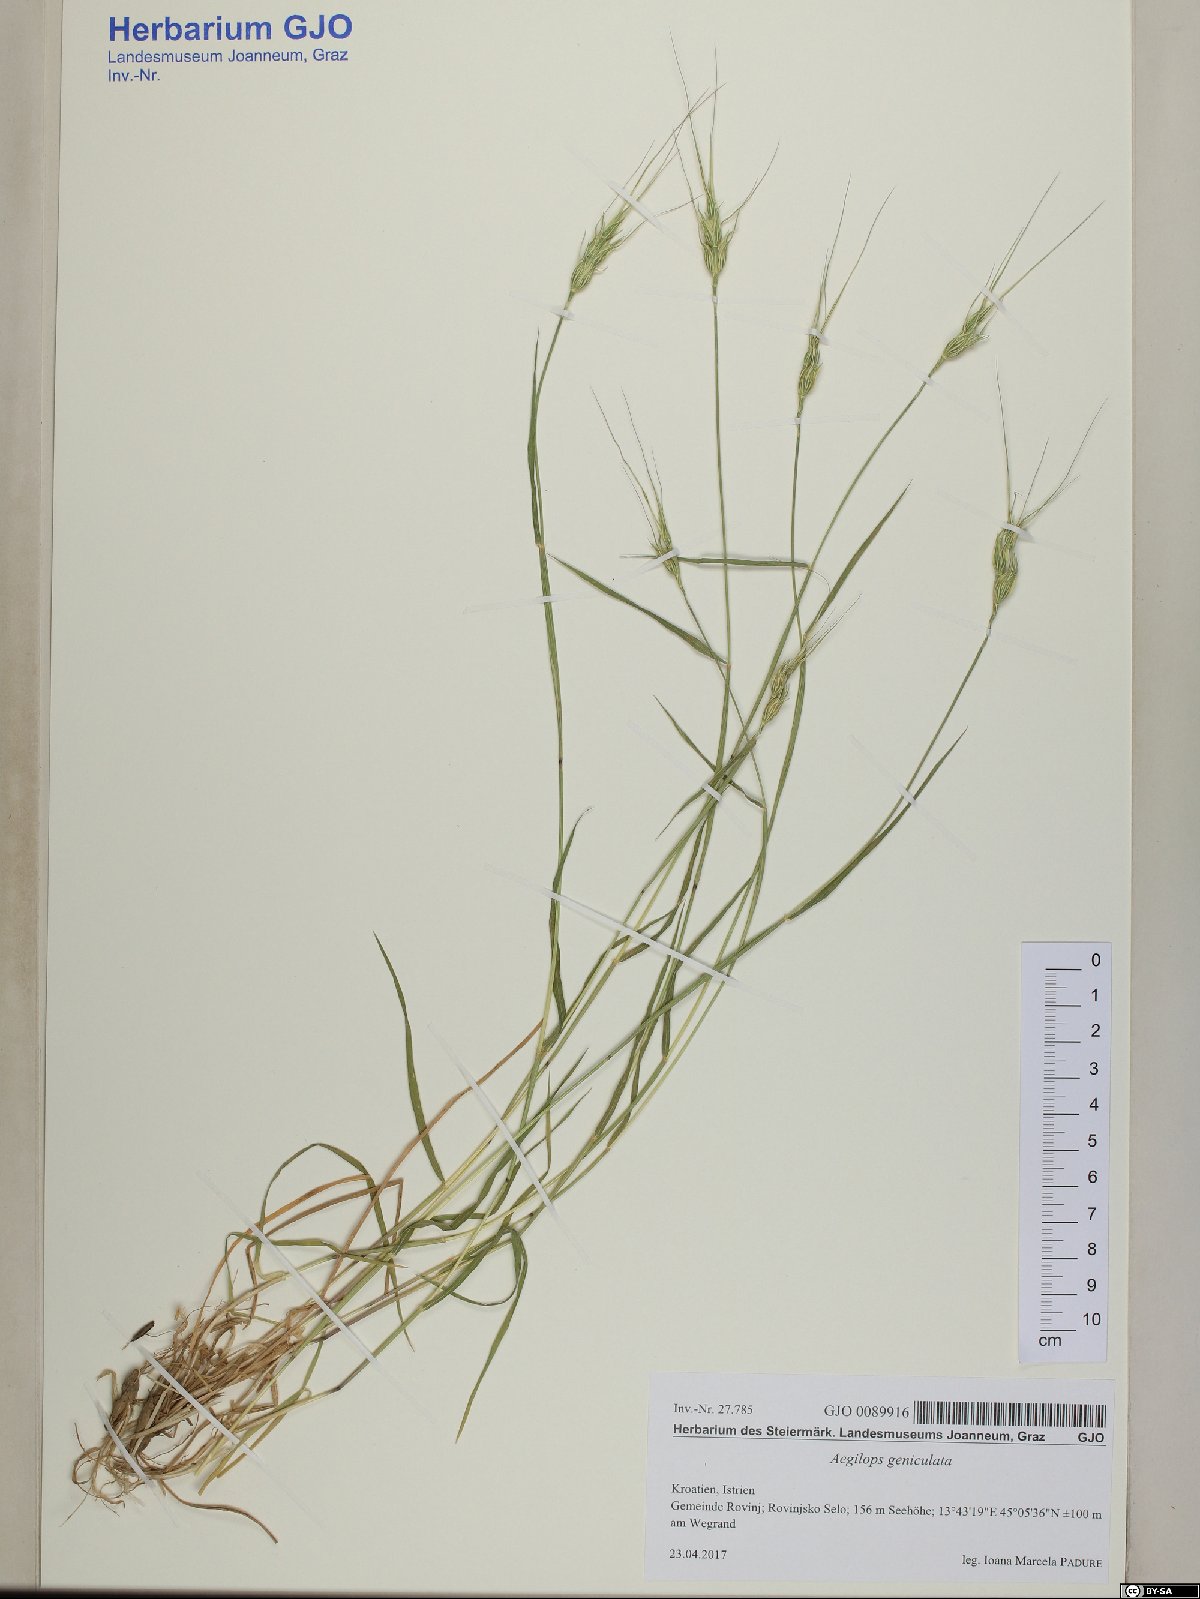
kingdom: Plantae
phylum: Tracheophyta
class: Liliopsida
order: Poales
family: Poaceae
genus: Aegilops
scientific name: Aegilops geniculata
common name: Ovate goat grass
